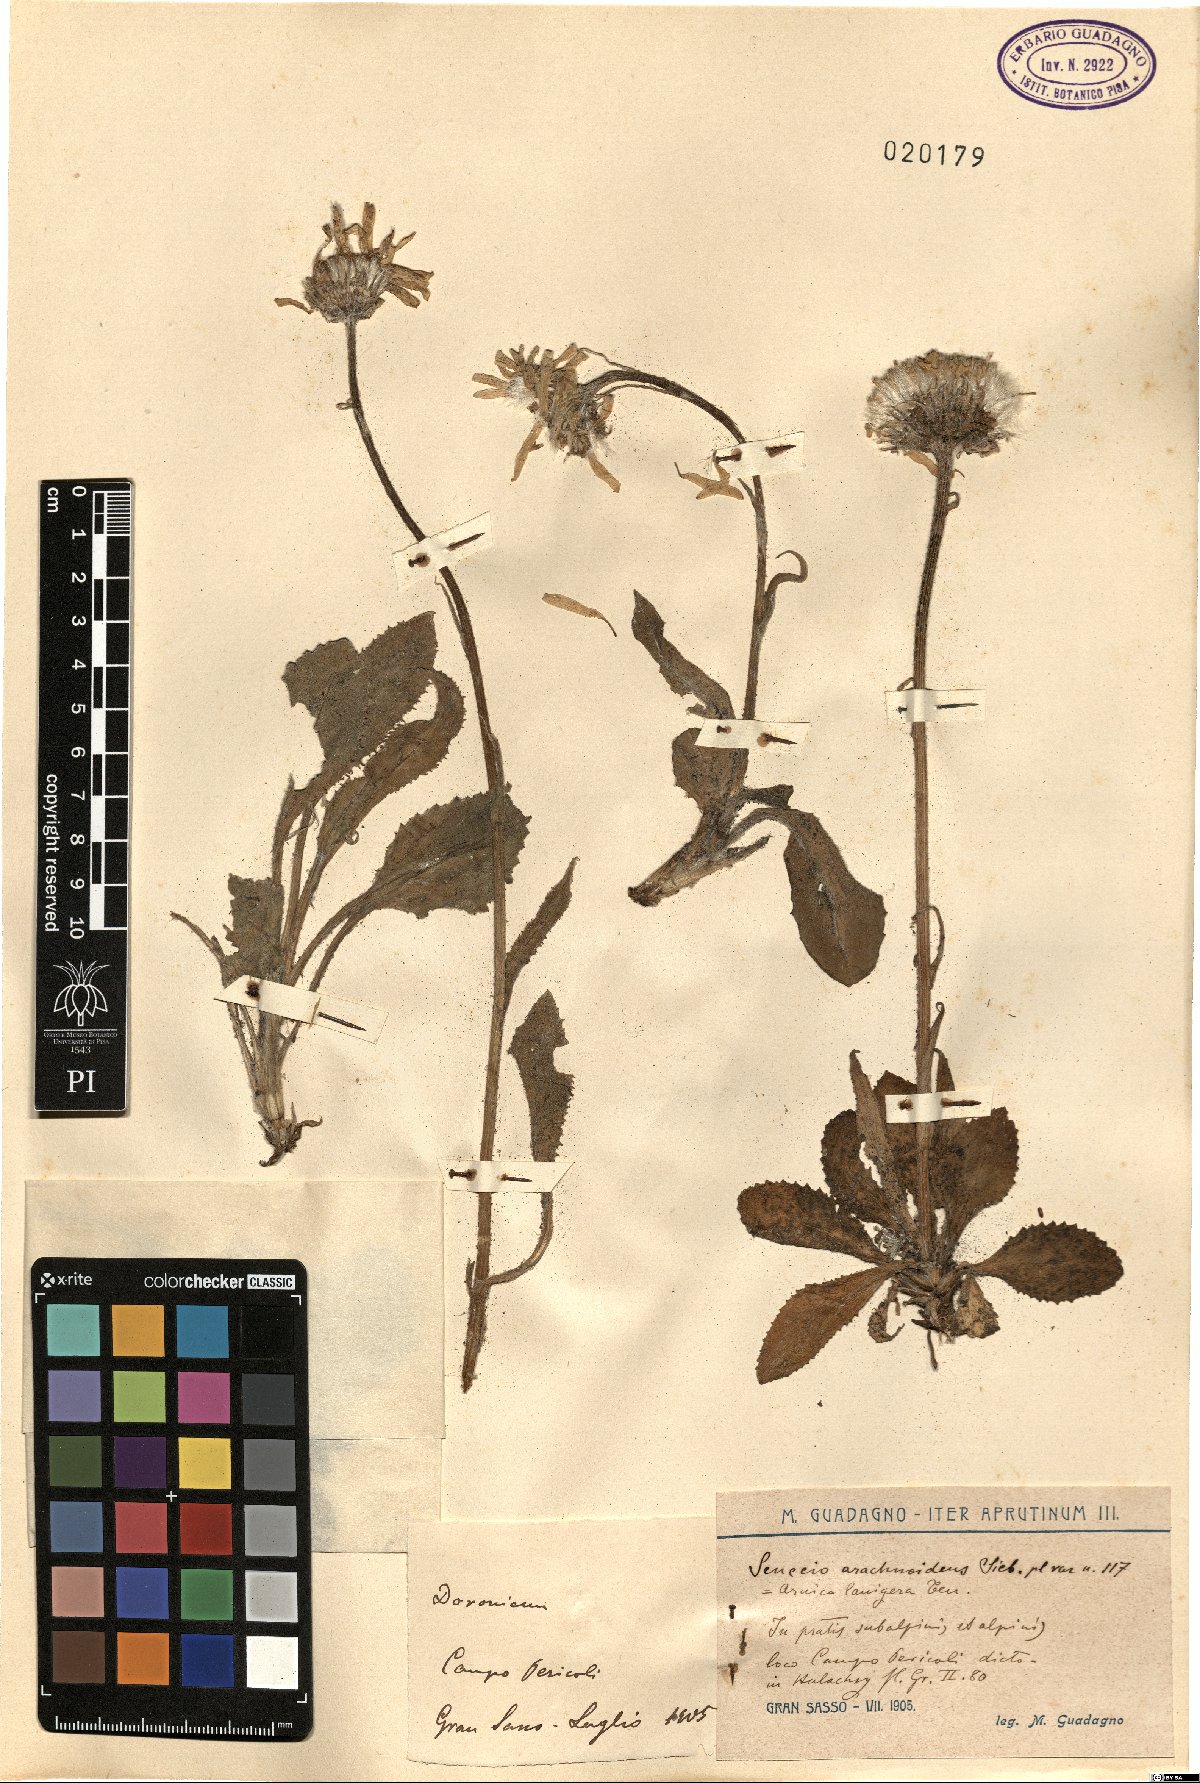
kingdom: Plantae
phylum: Tracheophyta
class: Magnoliopsida
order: Asterales
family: Asteraceae
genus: Senecio
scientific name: Senecio scopolii
